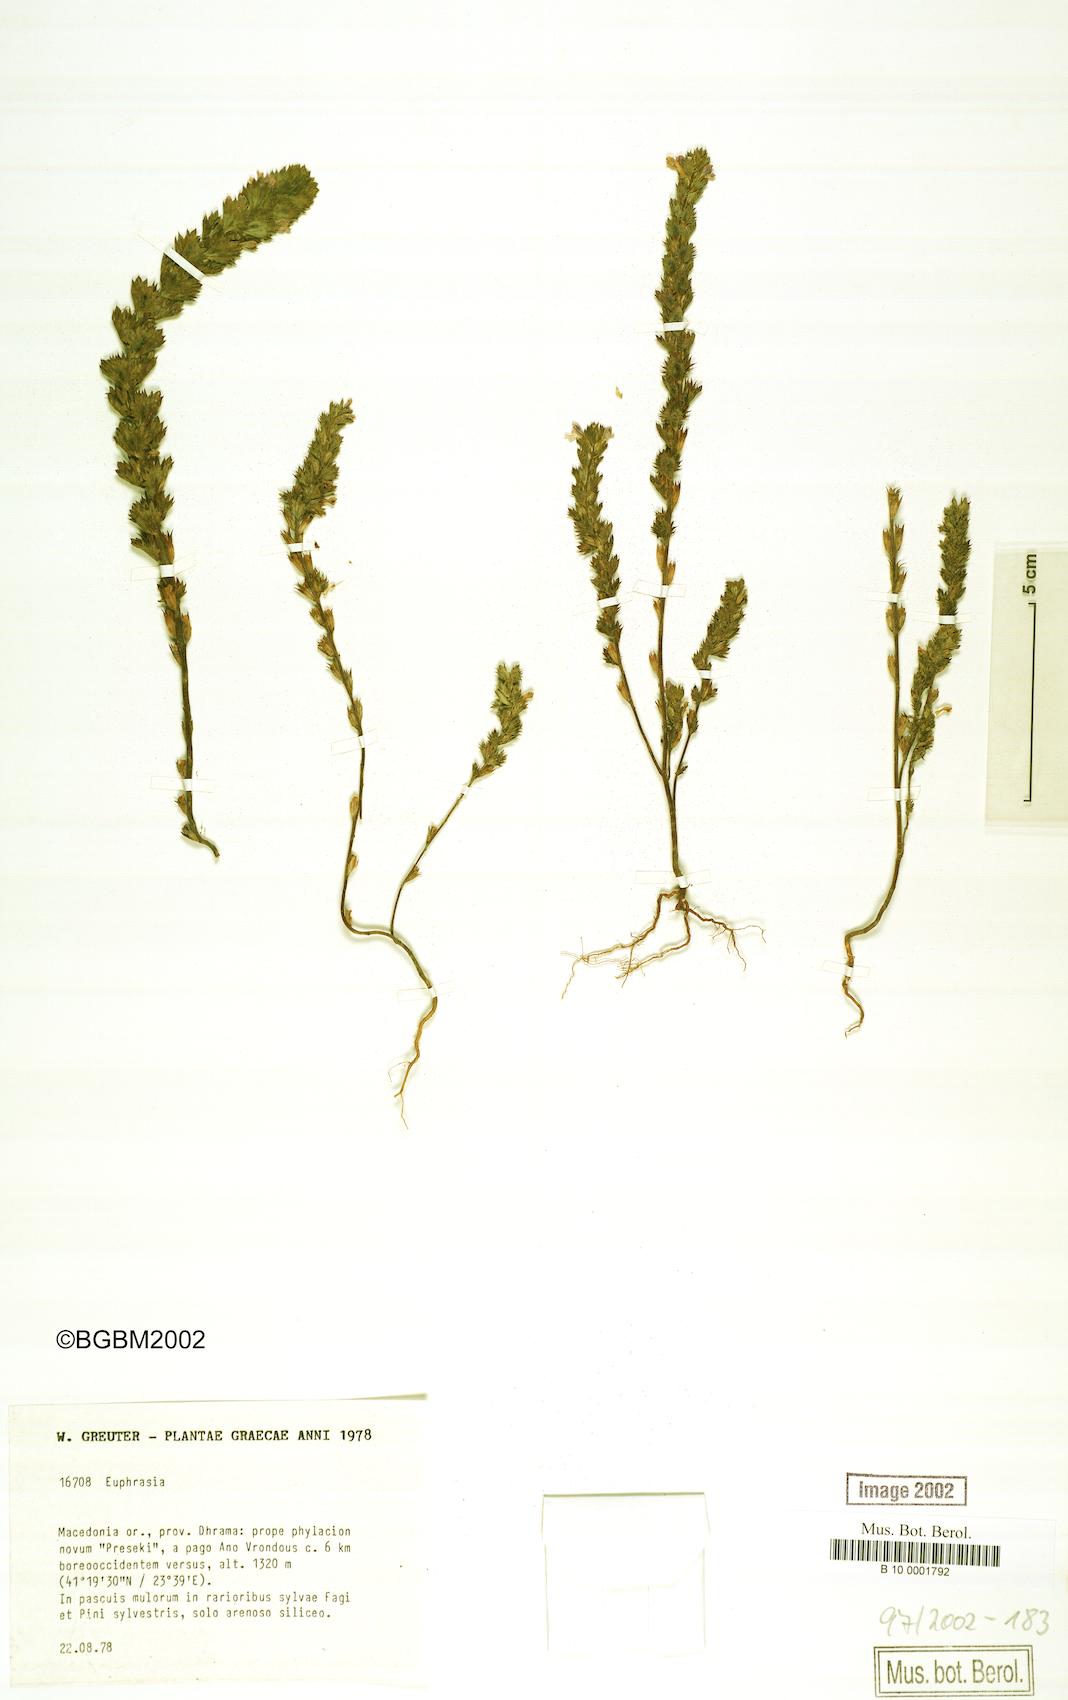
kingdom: Plantae
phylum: Tracheophyta
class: Magnoliopsida
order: Lamiales
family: Orobanchaceae
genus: Euphrasia
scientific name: Euphrasia
